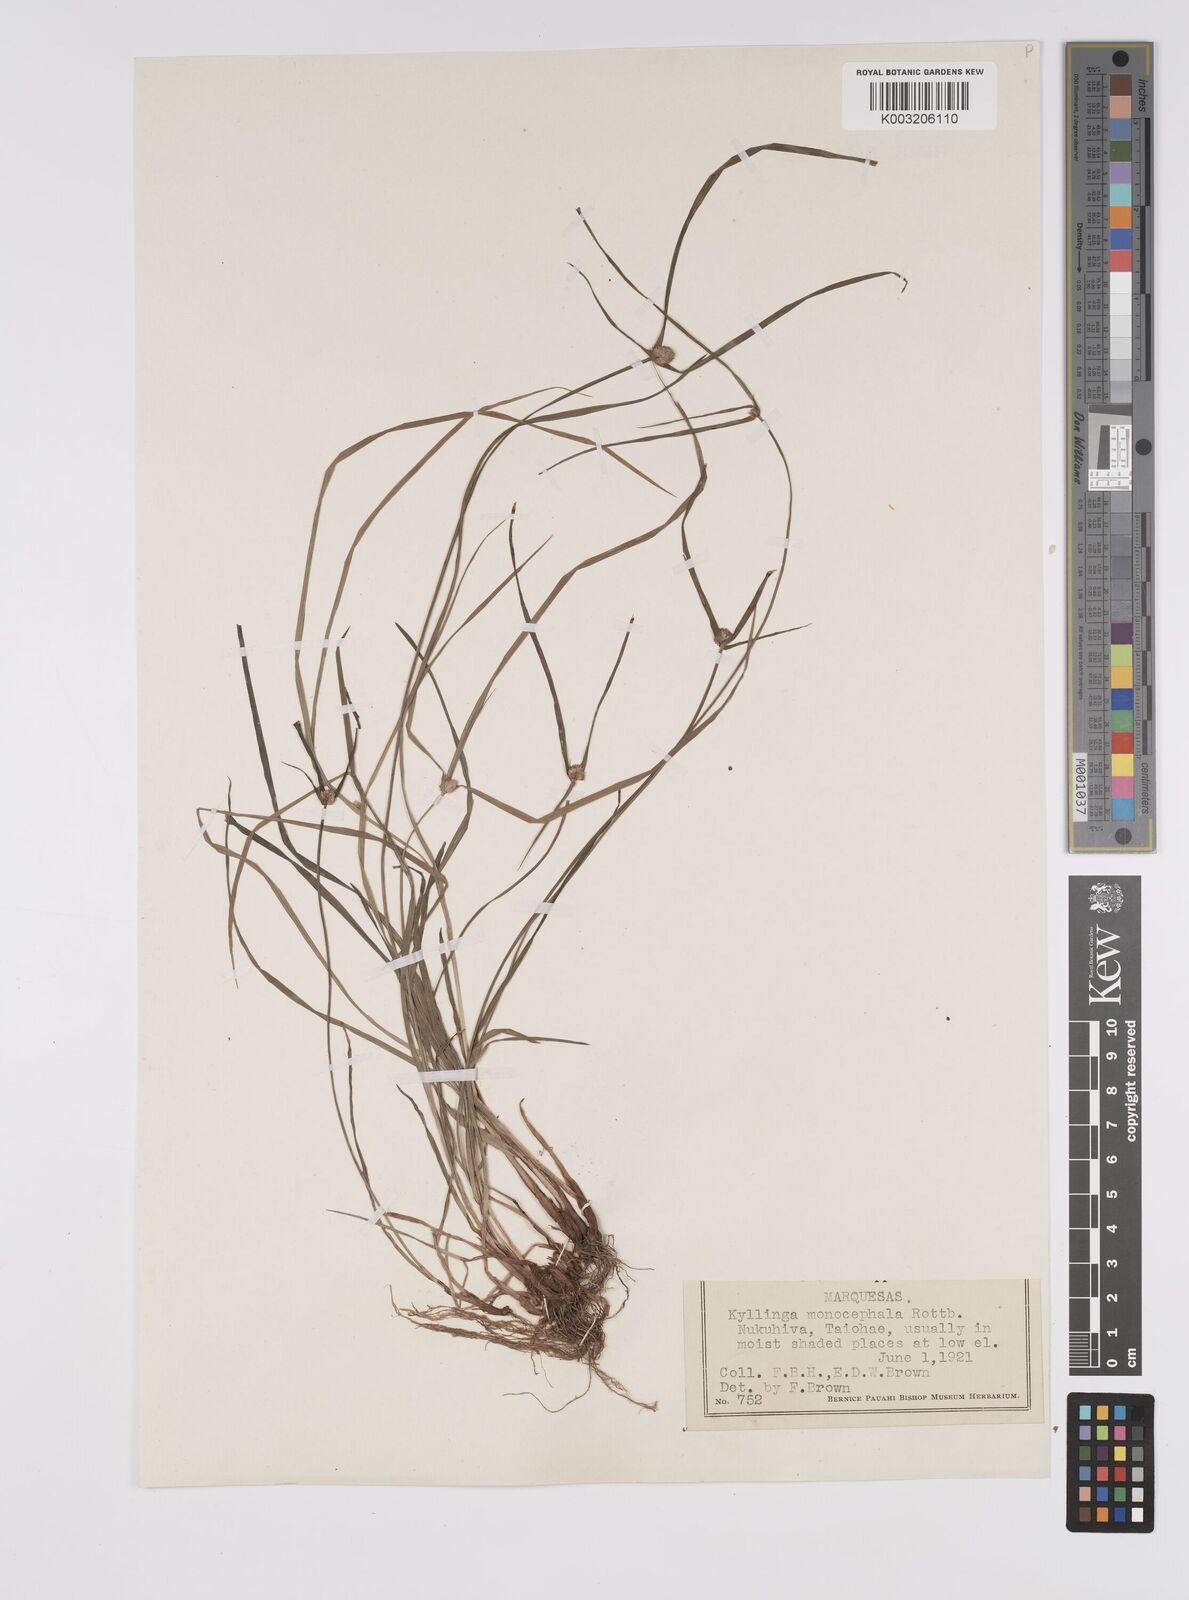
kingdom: Plantae
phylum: Tracheophyta
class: Liliopsida
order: Poales
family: Cyperaceae
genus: Cyperus
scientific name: Cyperus nemoralis
